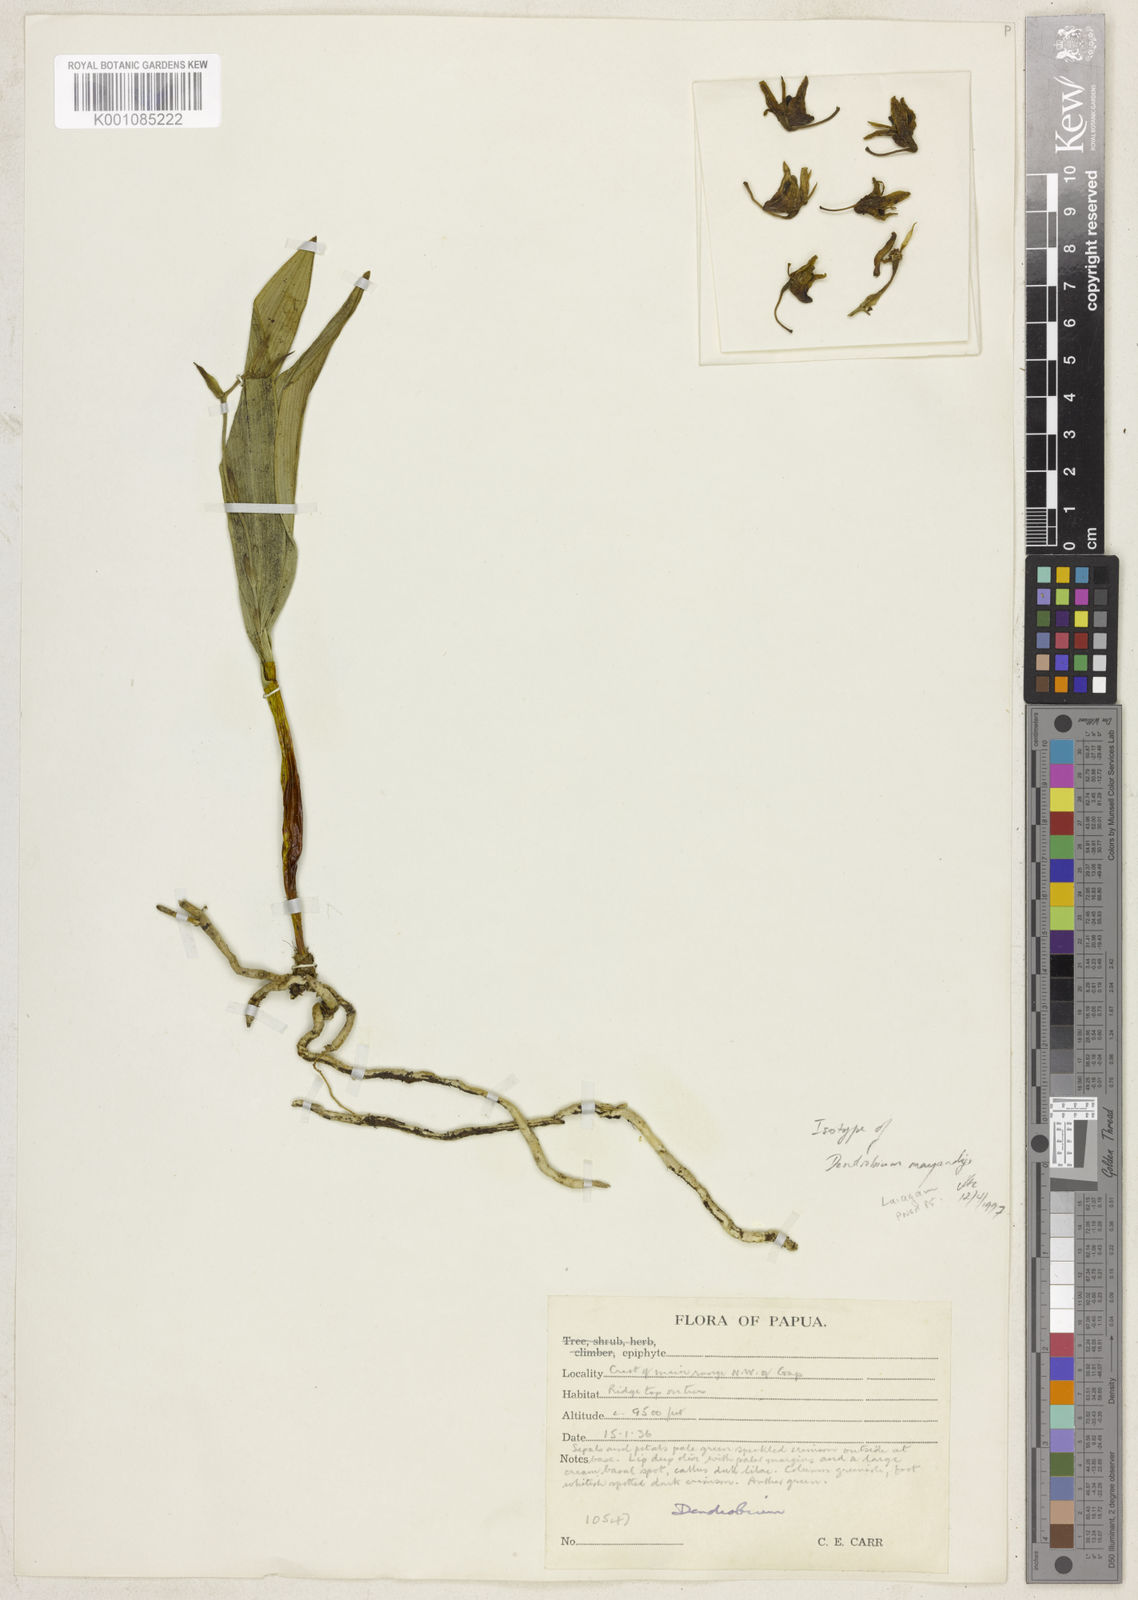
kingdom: Plantae
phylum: Tracheophyta
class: Liliopsida
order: Asparagales
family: Orchidaceae
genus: Dendrobium
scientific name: Dendrobium mayandyi
